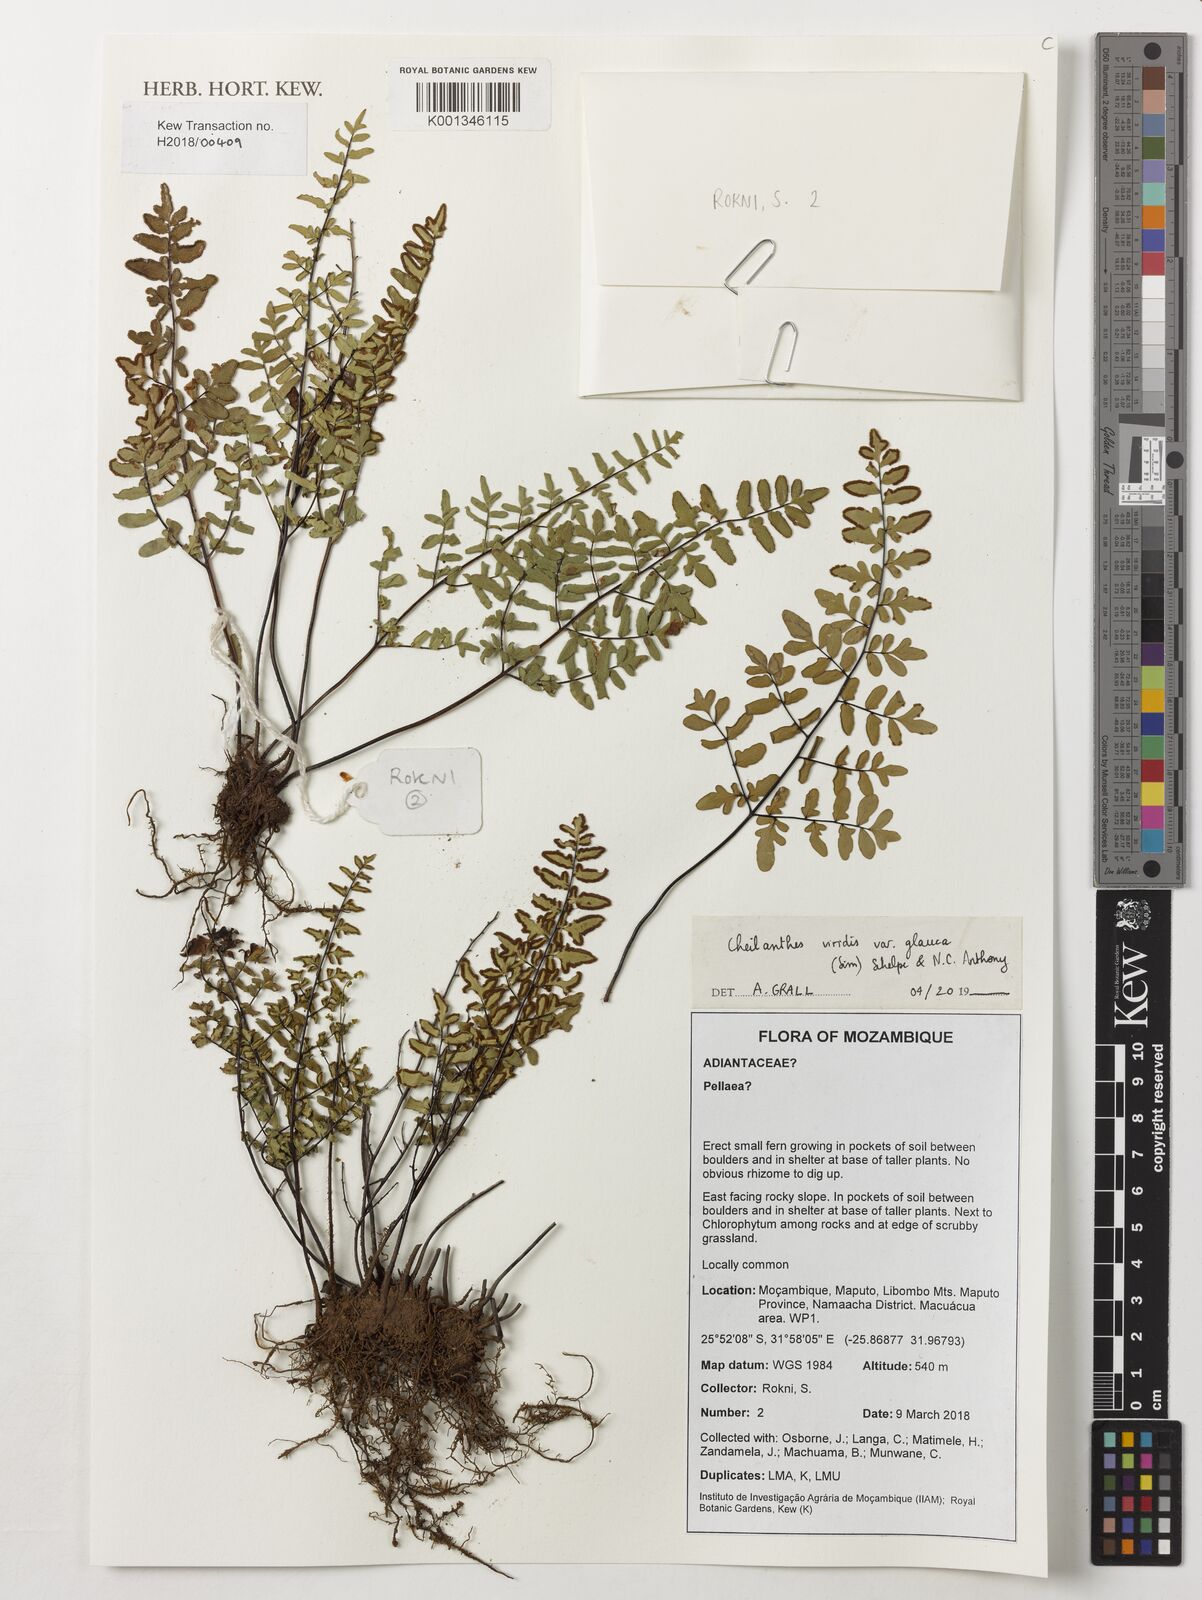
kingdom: Plantae
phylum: Tracheophyta
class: Polypodiopsida
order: Polypodiales
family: Pteridaceae
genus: Cheilanthes
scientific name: Cheilanthes viridis
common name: Green cliffbrake
